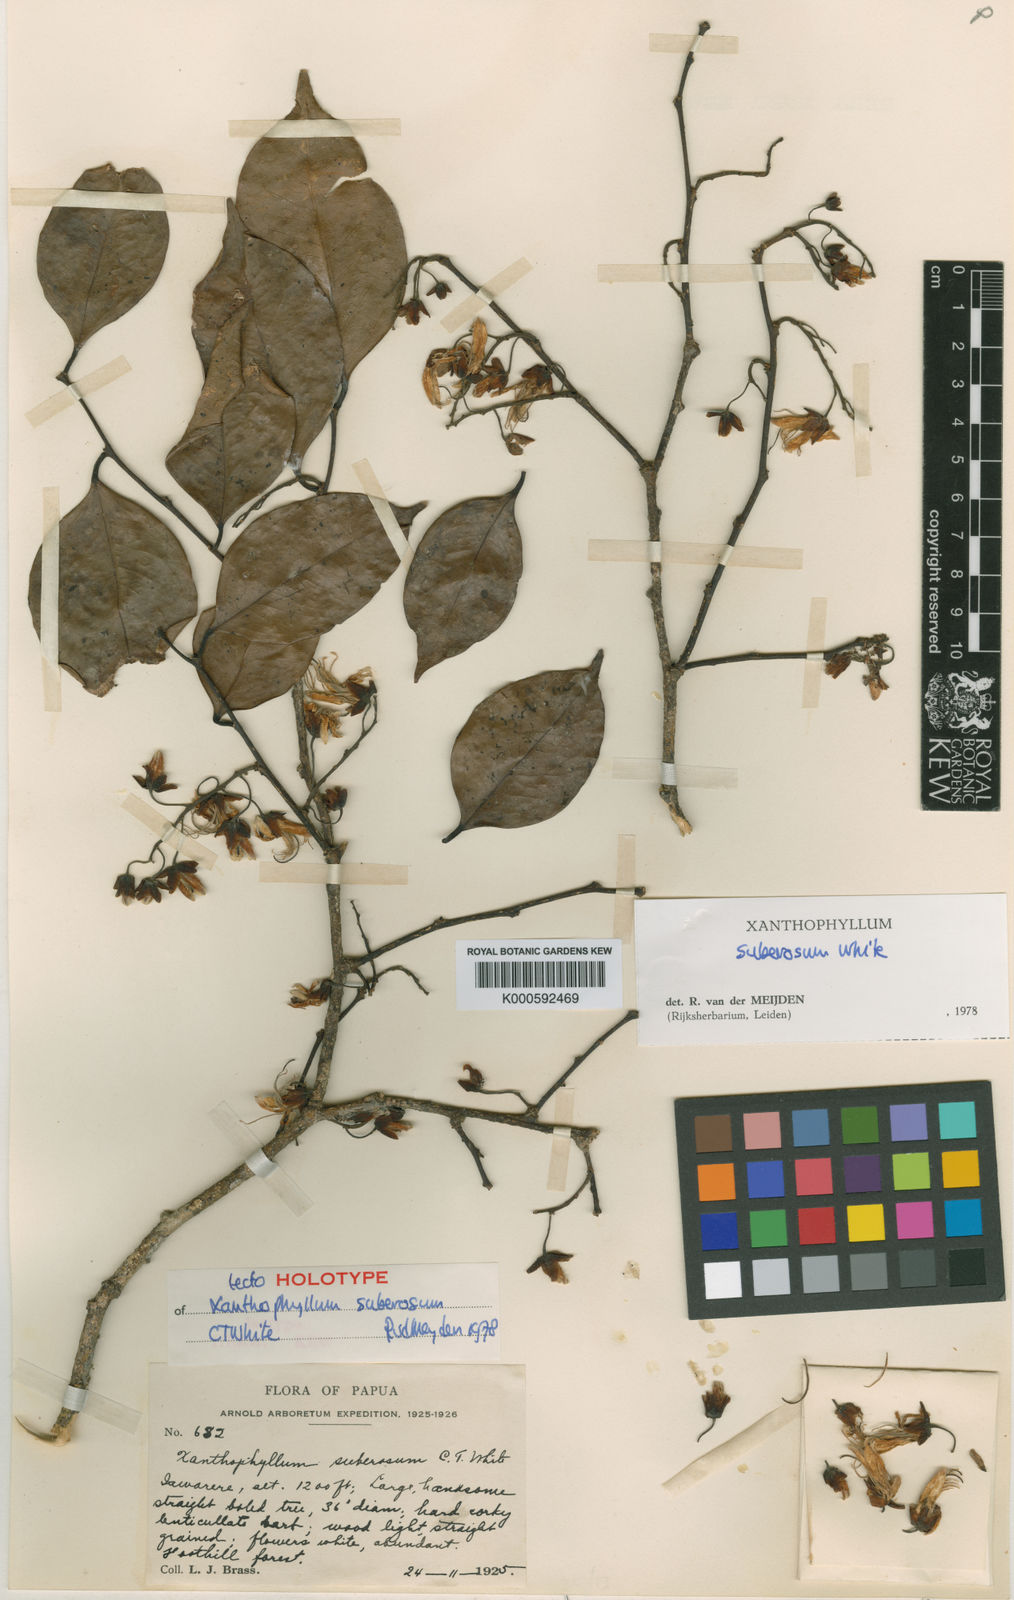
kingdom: Plantae
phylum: Tracheophyta
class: Magnoliopsida
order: Fabales
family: Polygalaceae
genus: Xanthophyllum
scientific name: Xanthophyllum suberosum
